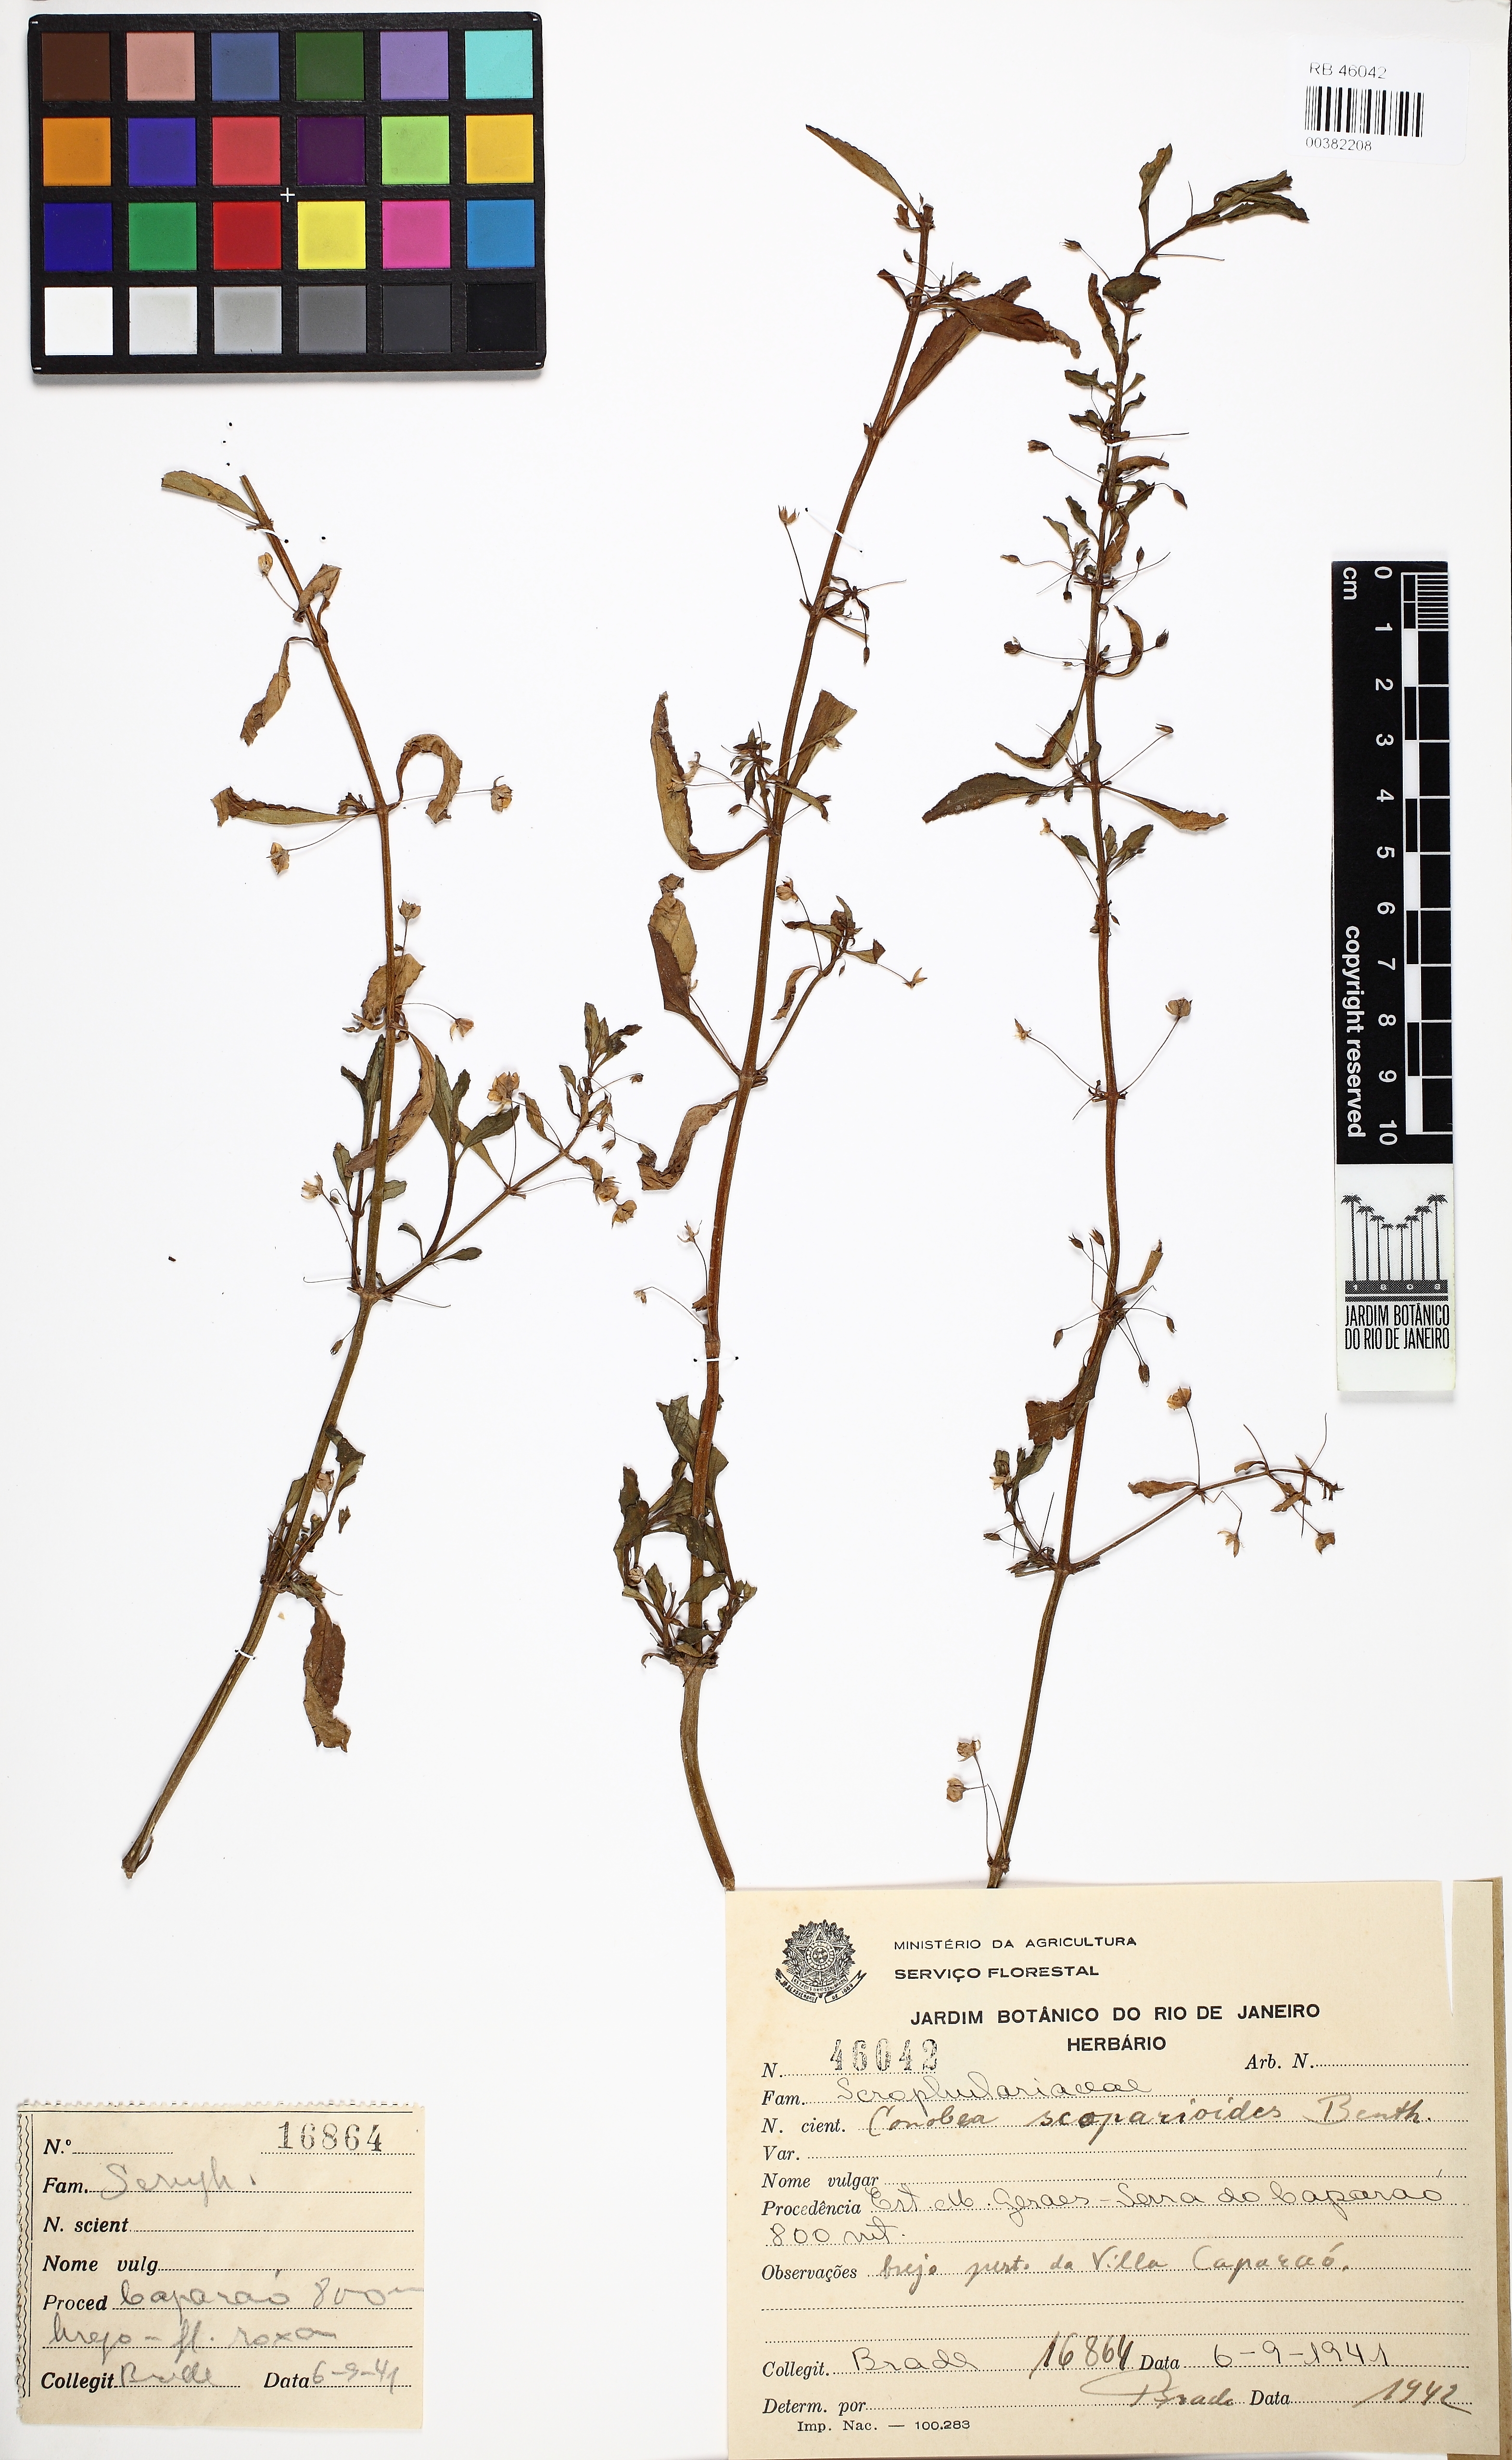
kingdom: Plantae
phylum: Tracheophyta
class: Magnoliopsida
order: Lamiales
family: Plantaginaceae
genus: Conobea
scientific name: Conobea scoparioides
